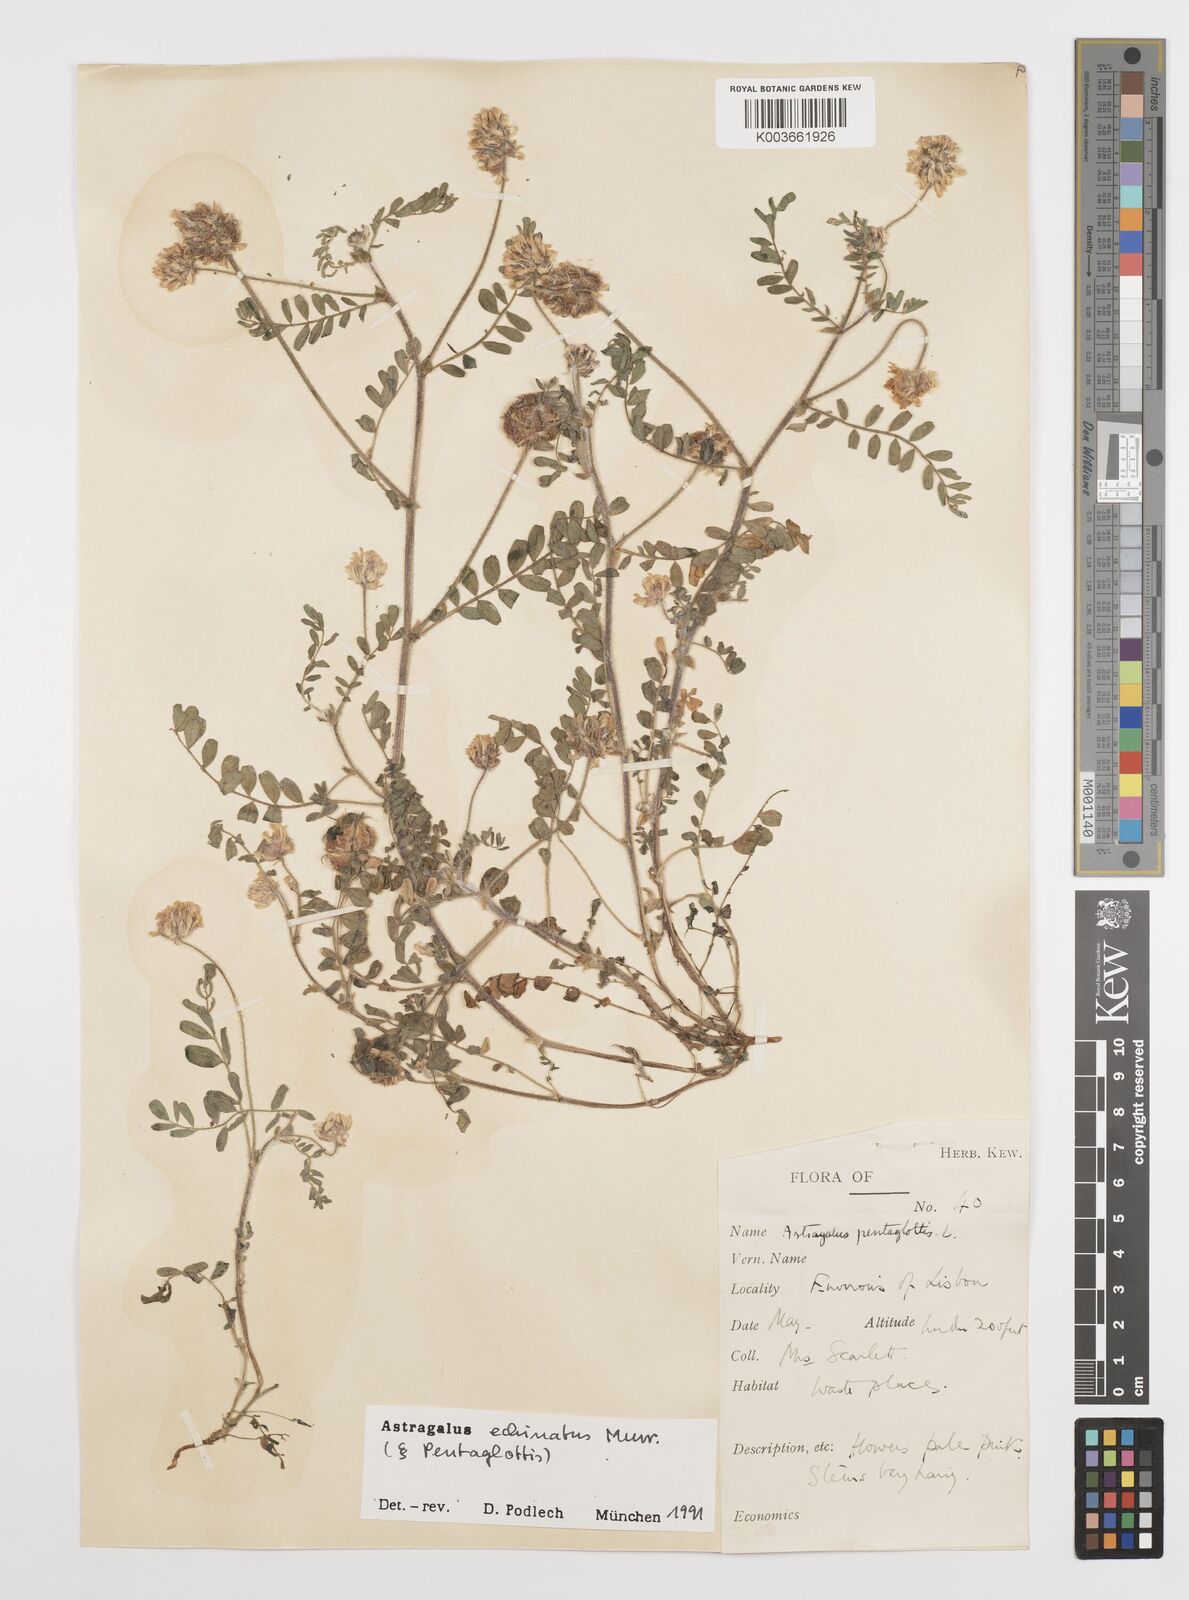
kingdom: Plantae
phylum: Tracheophyta
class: Magnoliopsida
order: Fabales
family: Fabaceae
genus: Astragalus
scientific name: Astragalus echinatus
